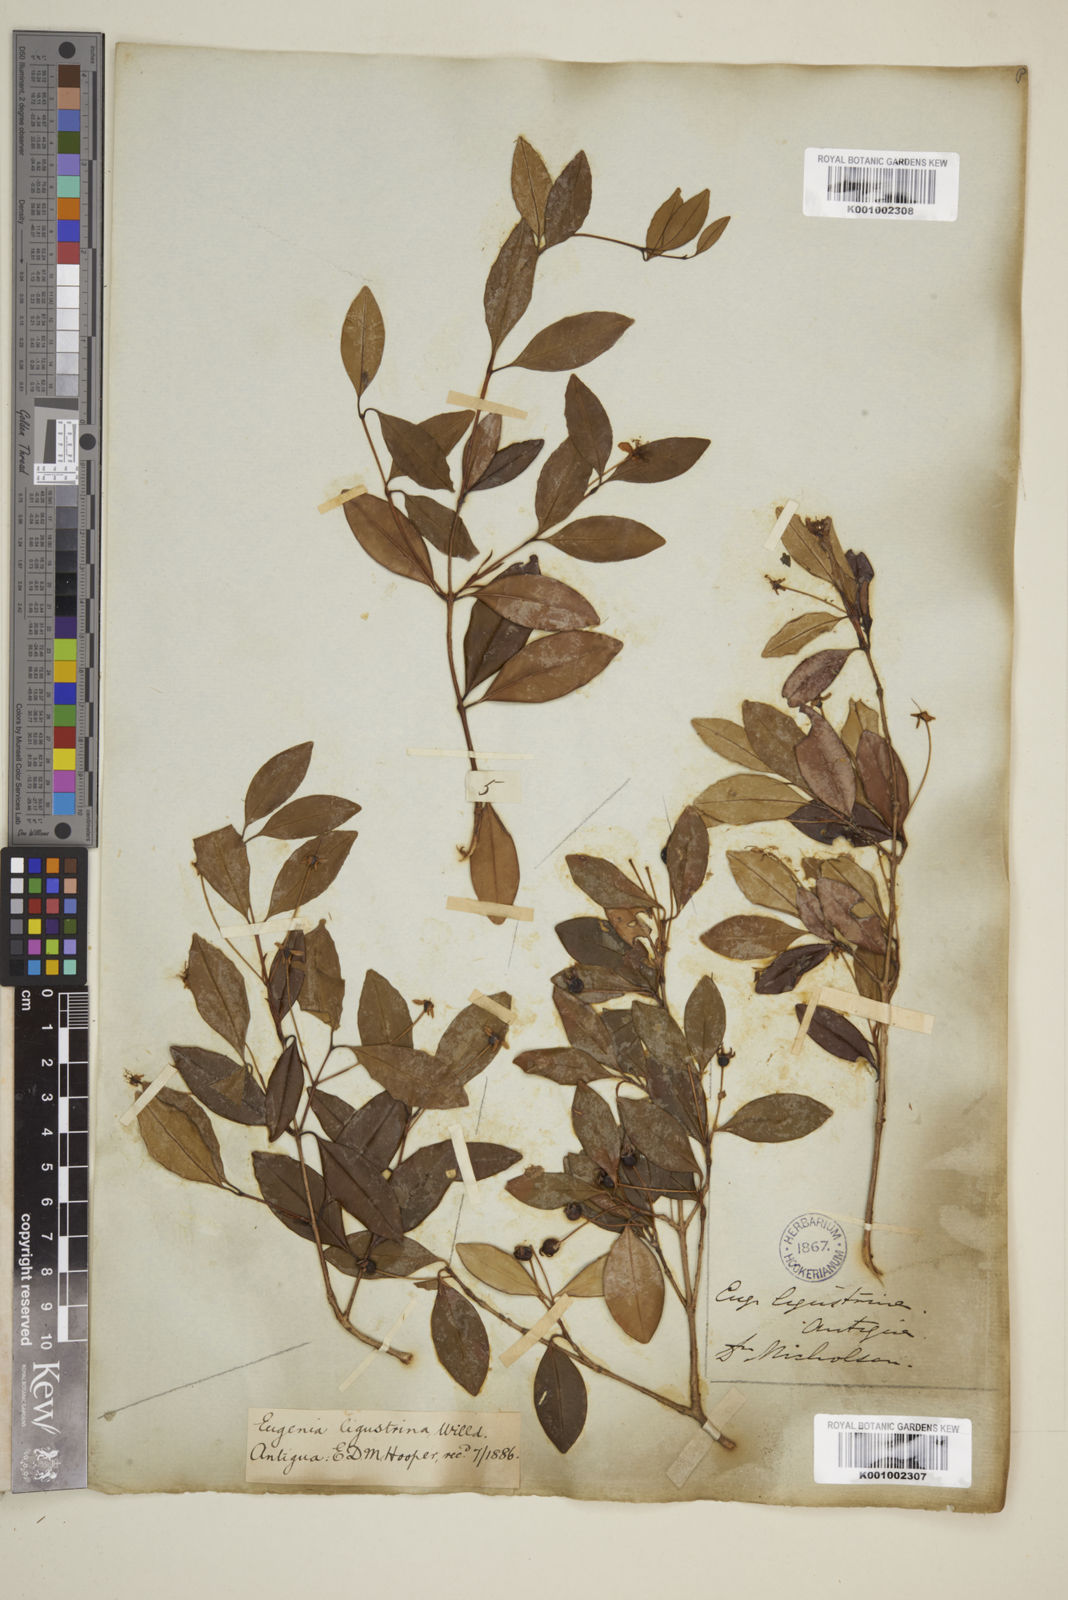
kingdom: Plantae
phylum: Tracheophyta
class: Magnoliopsida
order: Myrtales
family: Myrtaceae
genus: Eugenia
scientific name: Eugenia ligustrina
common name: Privet stopper
